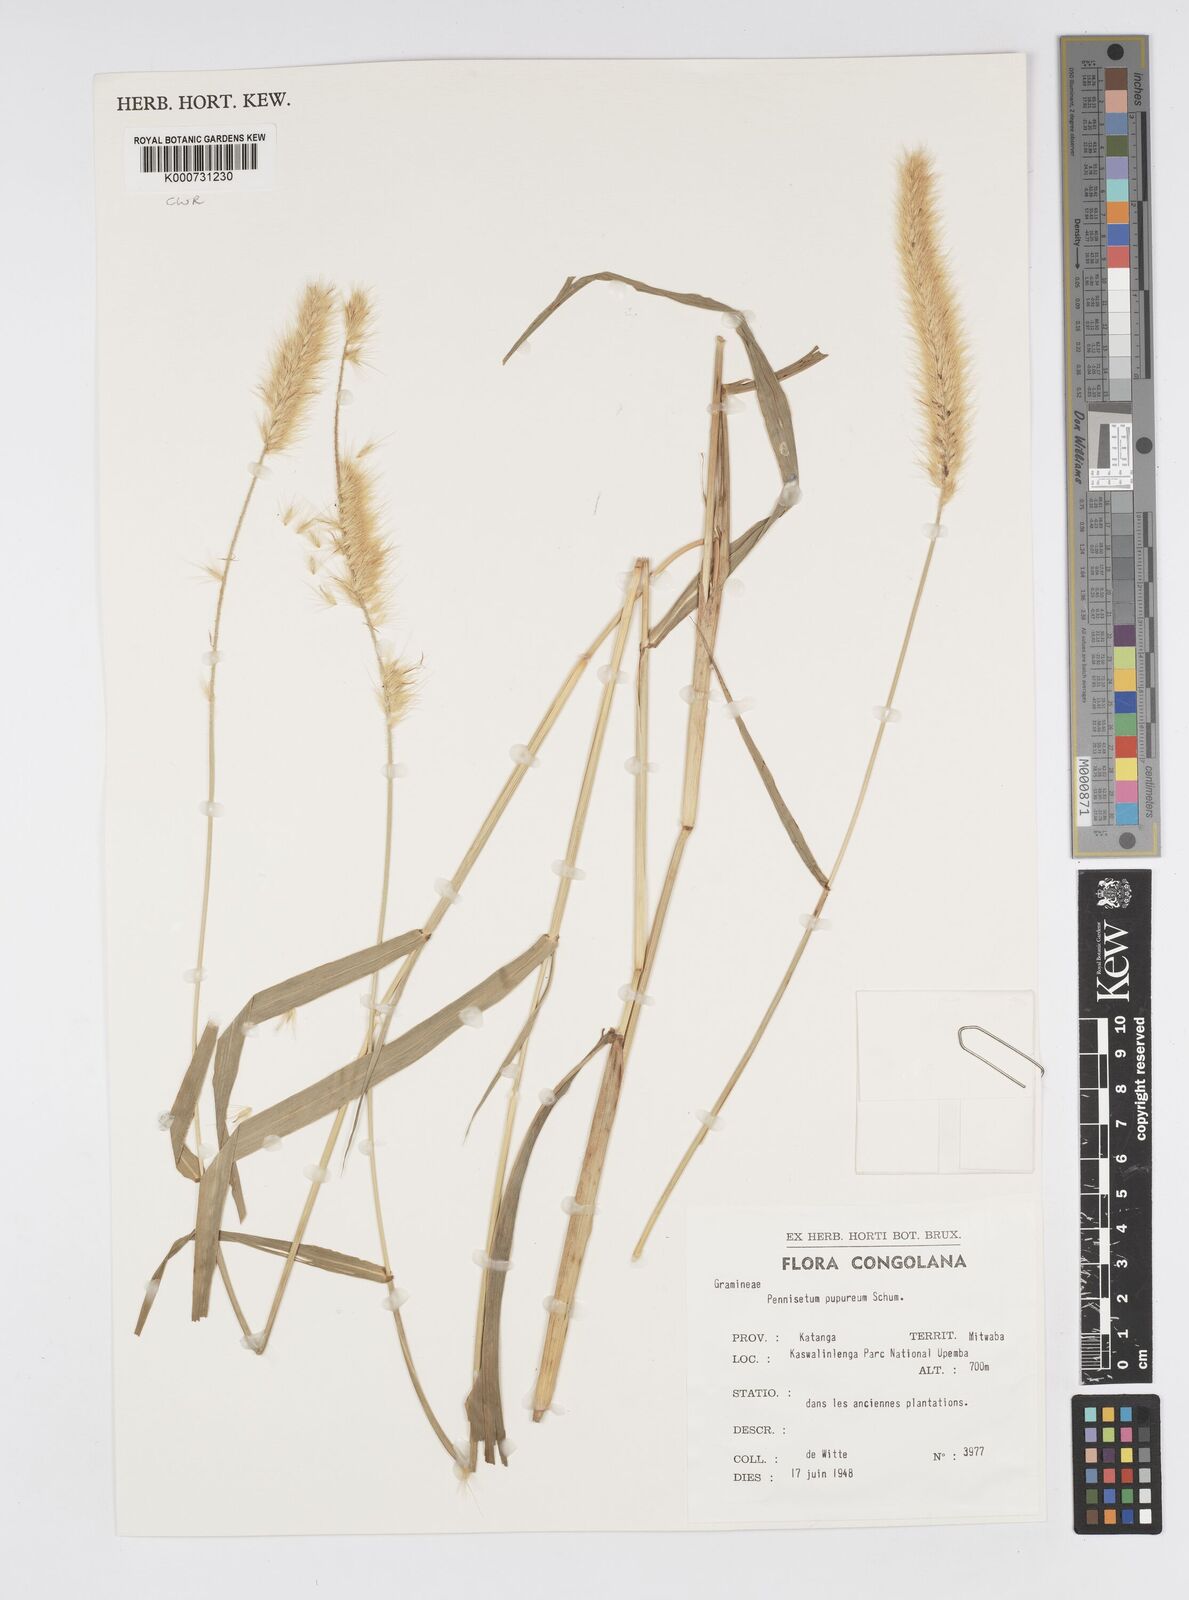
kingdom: Plantae
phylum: Tracheophyta
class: Liliopsida
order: Poales
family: Poaceae
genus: Cenchrus
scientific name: Cenchrus purpureus
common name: Elephant grass
